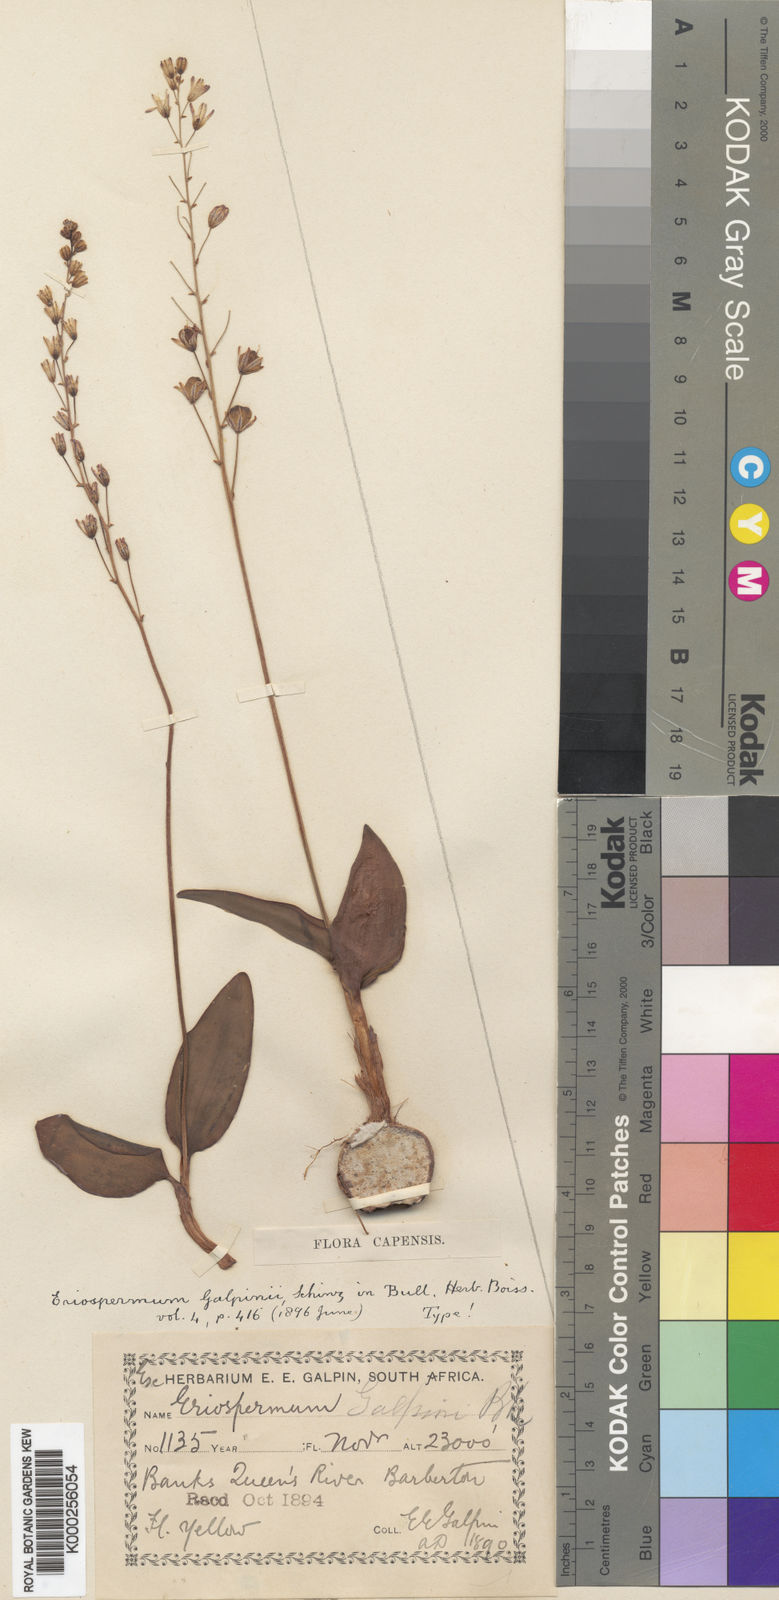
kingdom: Plantae
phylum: Tracheophyta
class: Liliopsida
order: Asparagales
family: Asparagaceae
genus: Eriospermum
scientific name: Eriospermum mackenii
